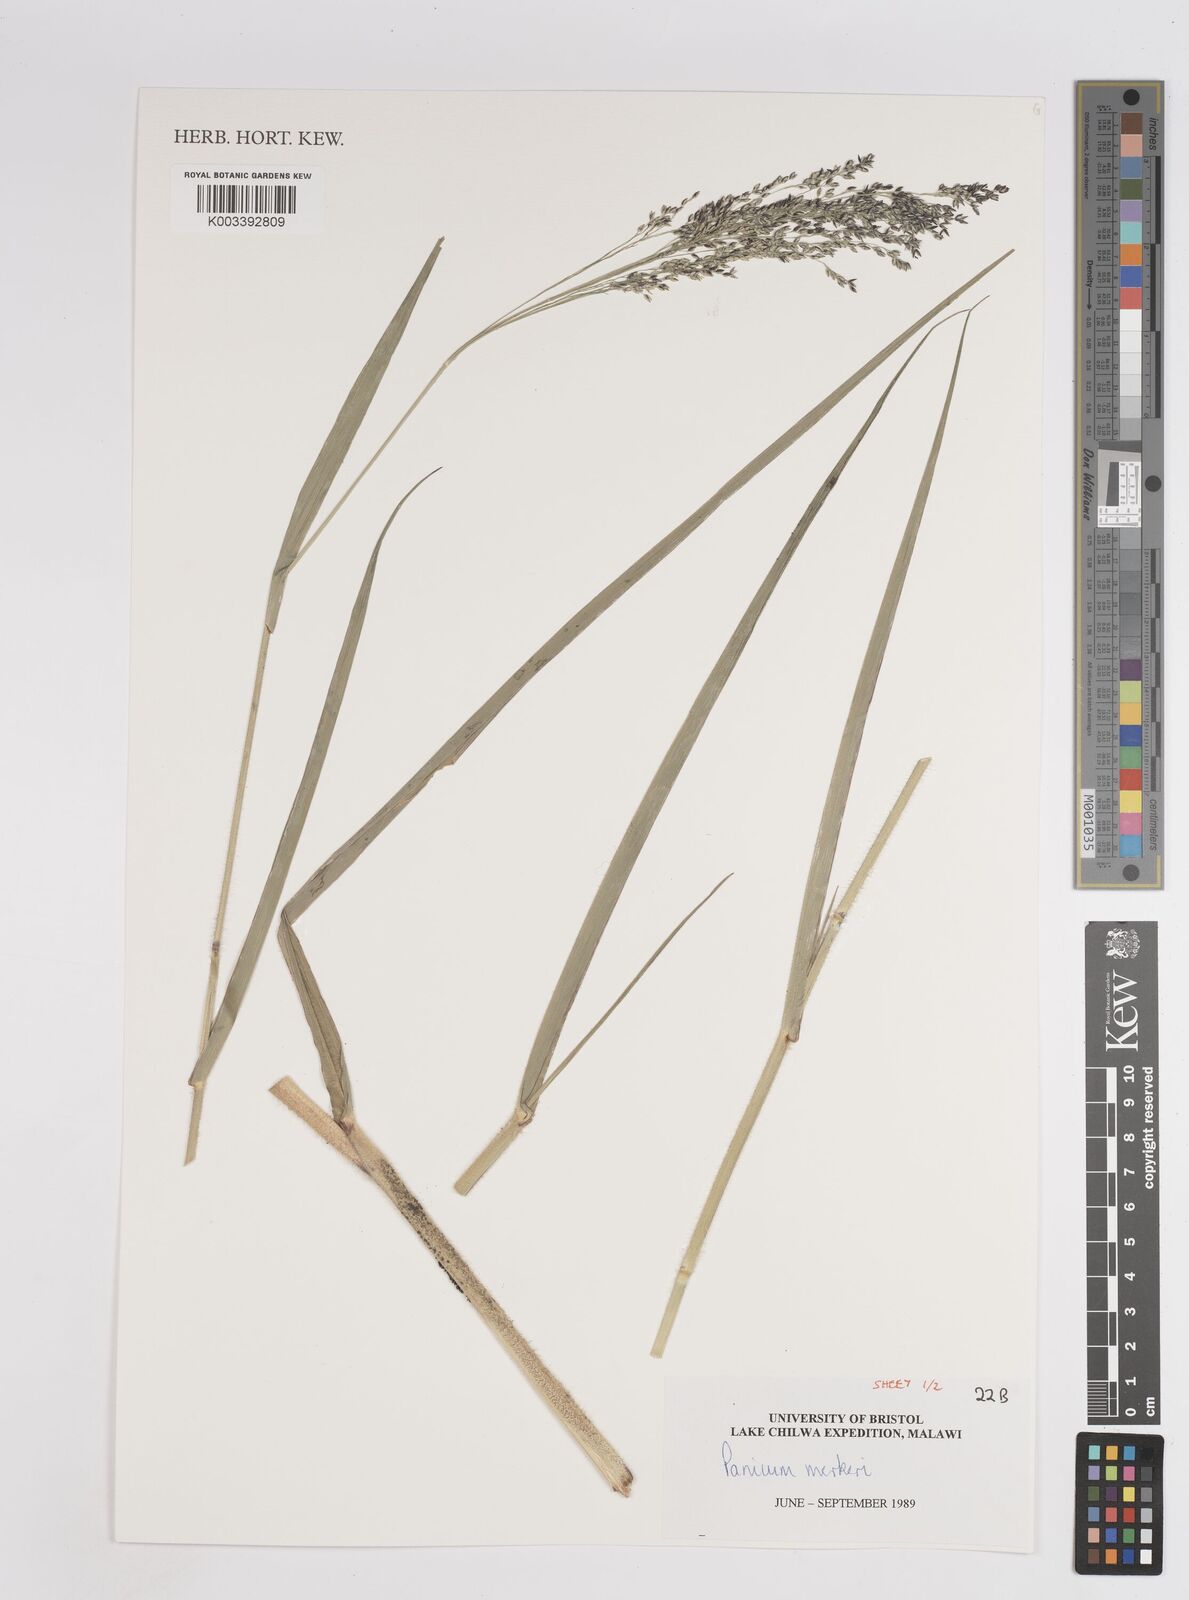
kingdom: Plantae
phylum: Tracheophyta
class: Liliopsida
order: Poales
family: Poaceae
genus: Panicum
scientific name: Panicum merkeri
